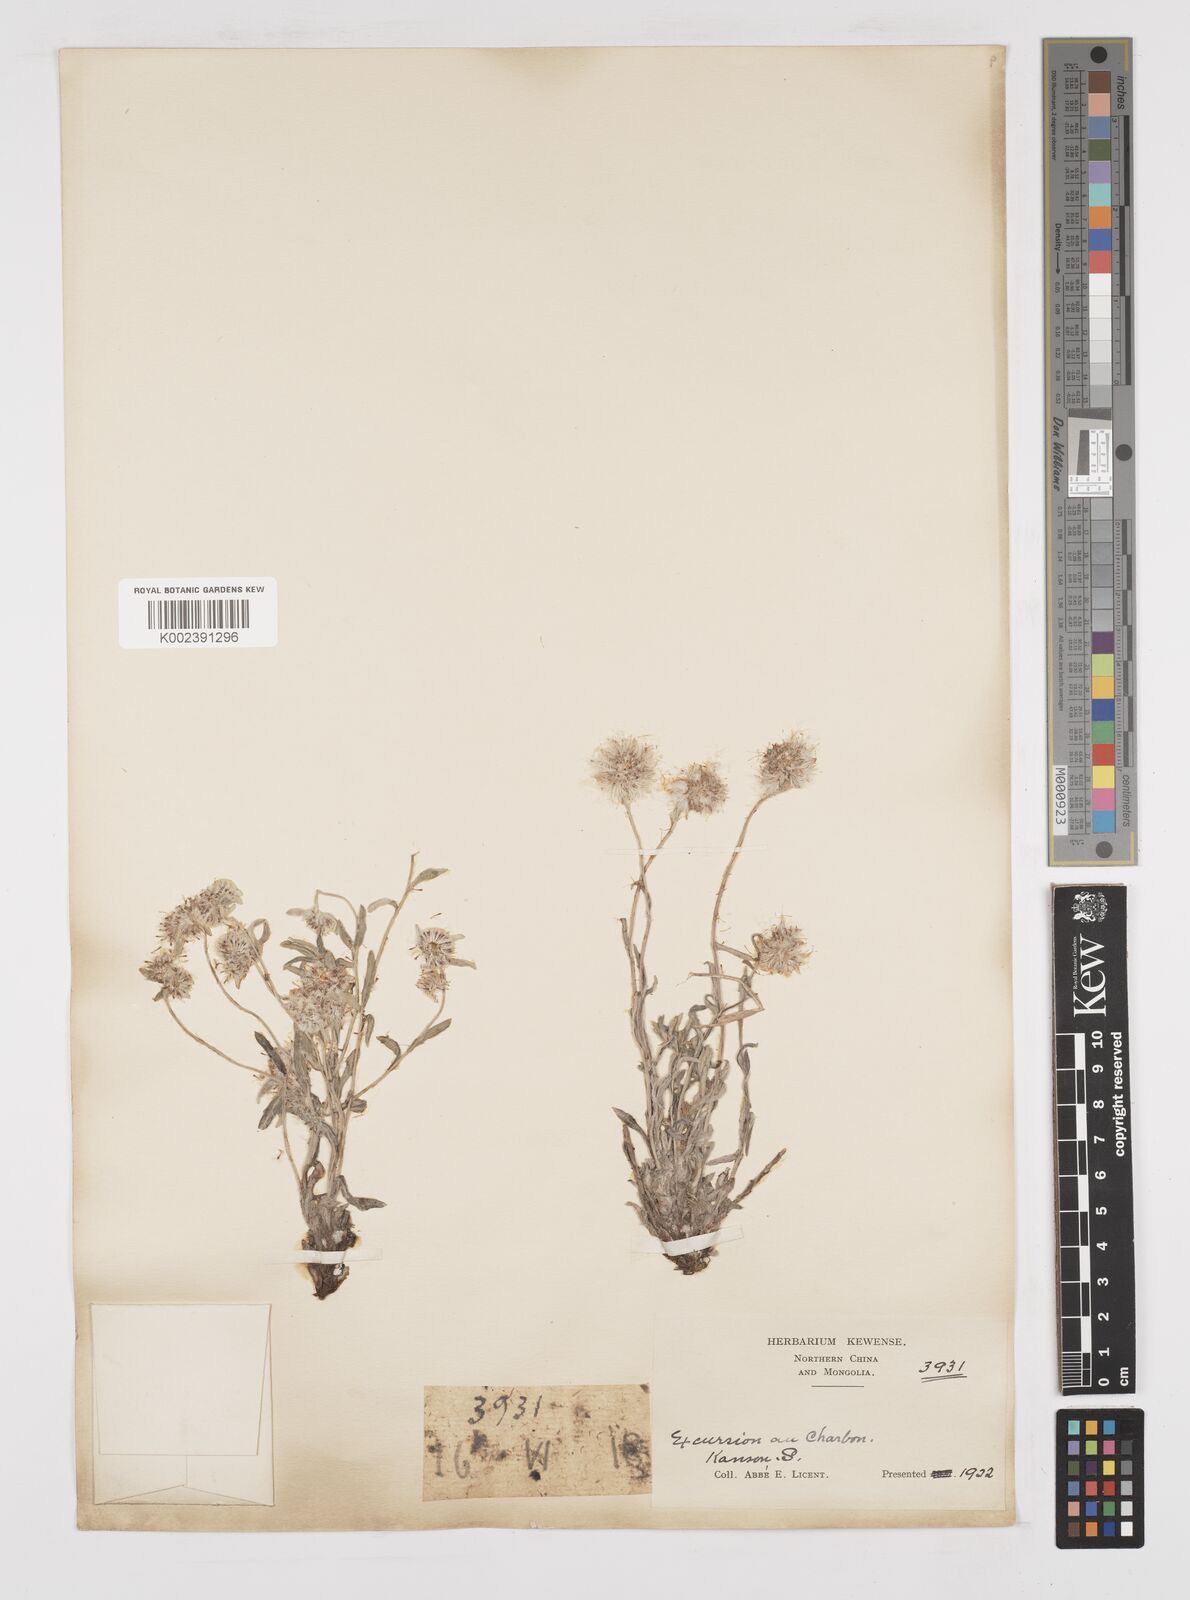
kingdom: Plantae
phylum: Tracheophyta
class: Magnoliopsida
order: Asterales
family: Asteraceae
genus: Anaphalis
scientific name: Anaphalis sinica
